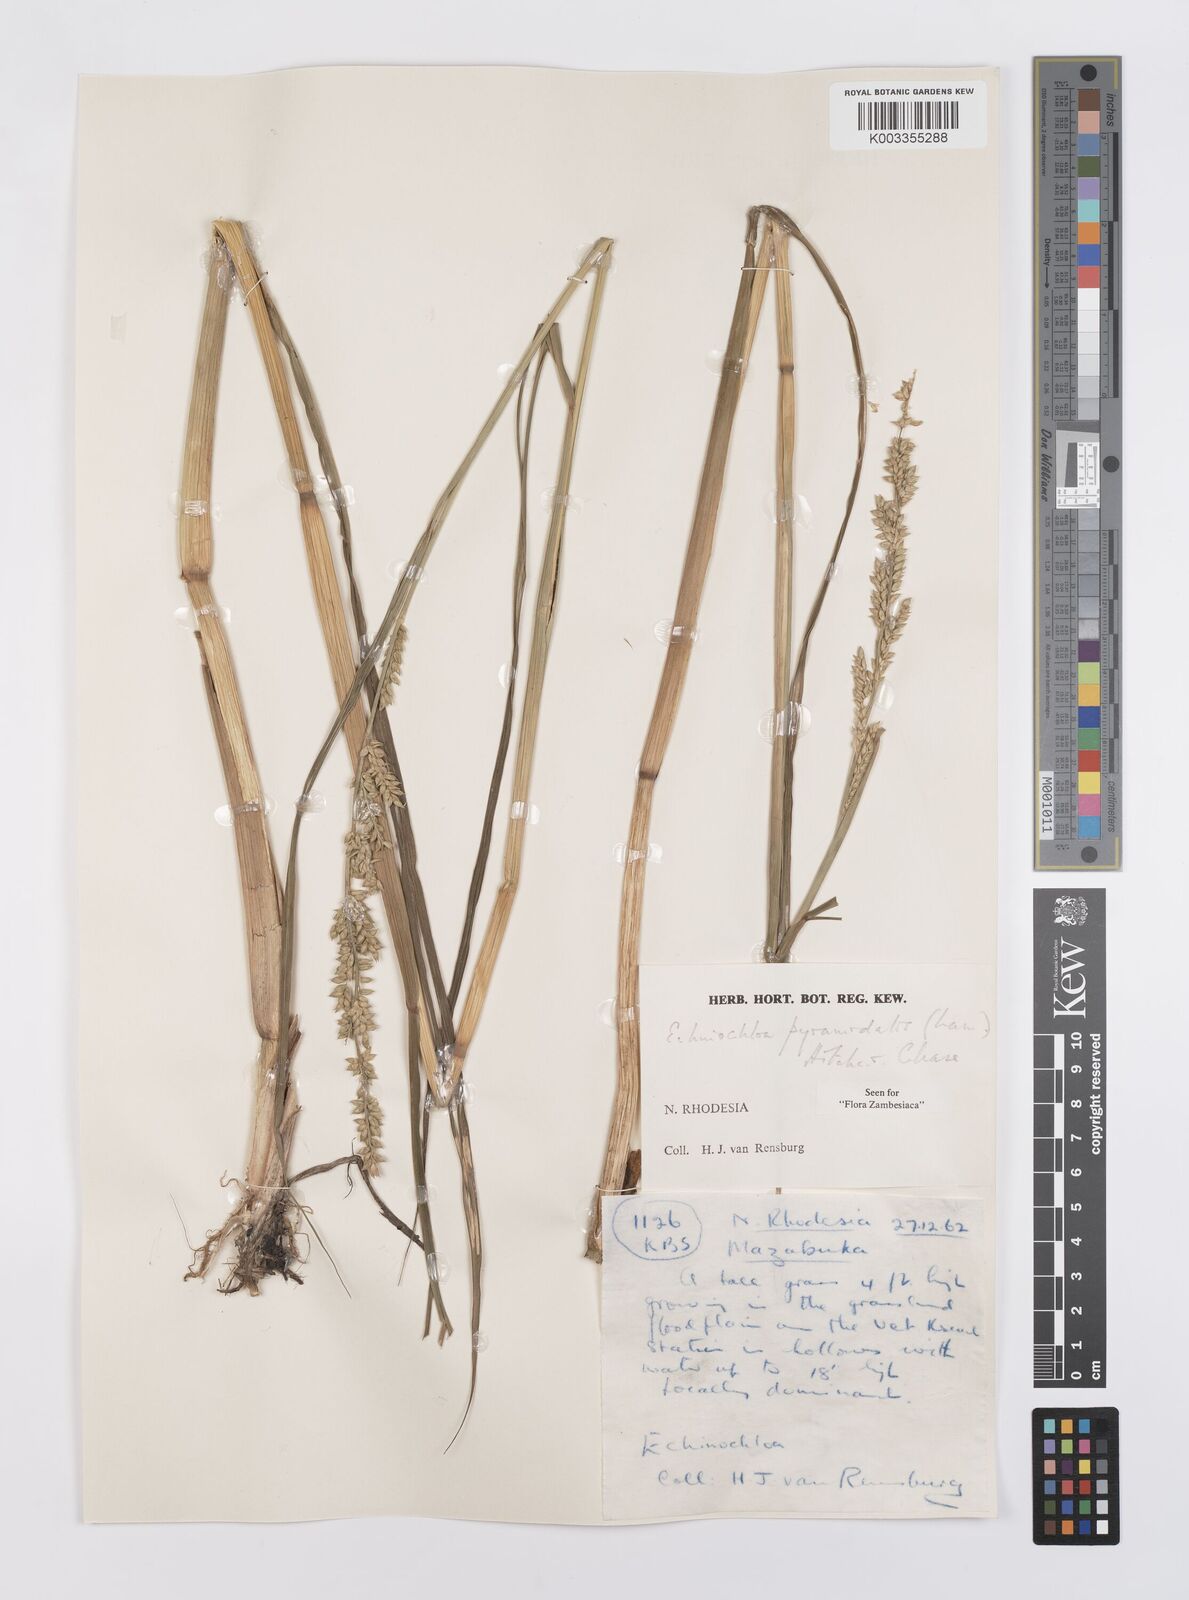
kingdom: Plantae
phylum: Tracheophyta
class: Liliopsida
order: Poales
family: Poaceae
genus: Echinochloa
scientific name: Echinochloa pyramidalis
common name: Antelope grass
